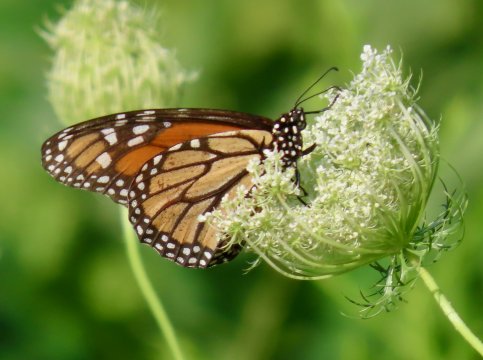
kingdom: Animalia
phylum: Arthropoda
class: Insecta
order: Lepidoptera
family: Nymphalidae
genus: Danaus
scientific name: Danaus plexippus
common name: Monarch
